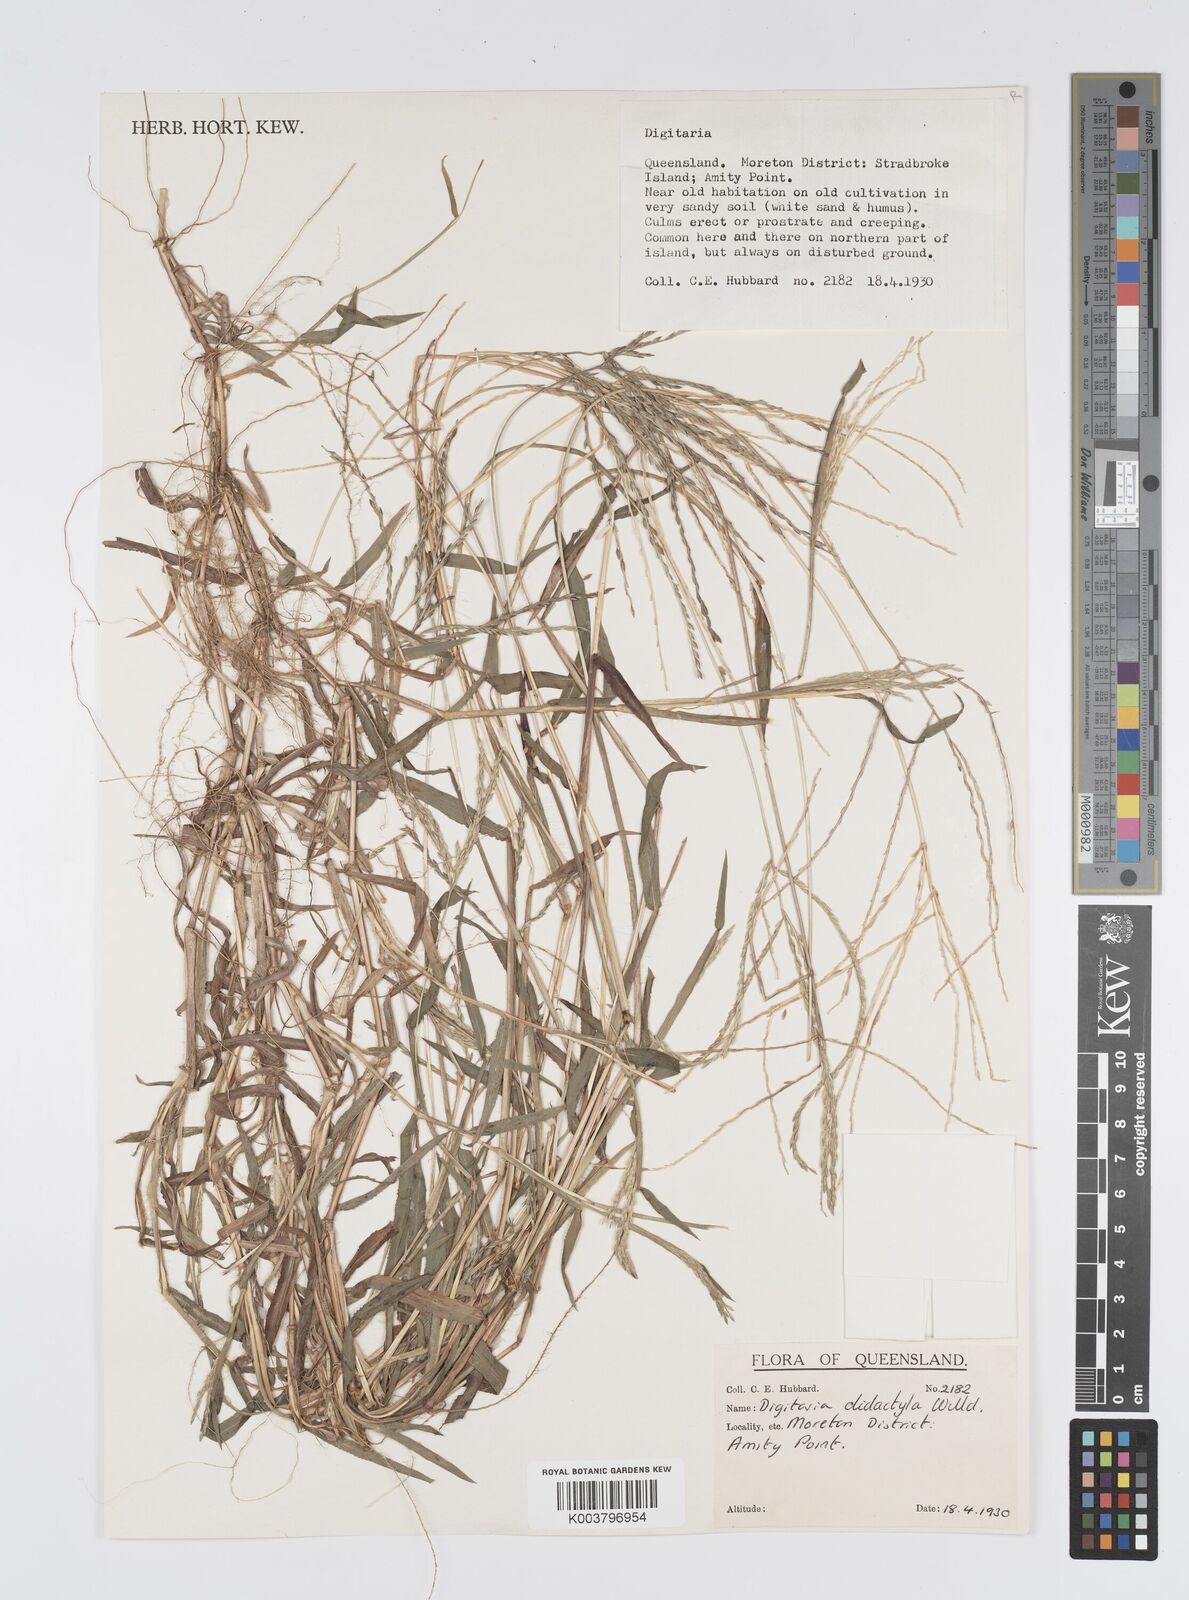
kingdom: Plantae
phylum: Tracheophyta
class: Liliopsida
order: Poales
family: Poaceae
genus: Digitaria
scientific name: Digitaria didactyla
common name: Blue couch
